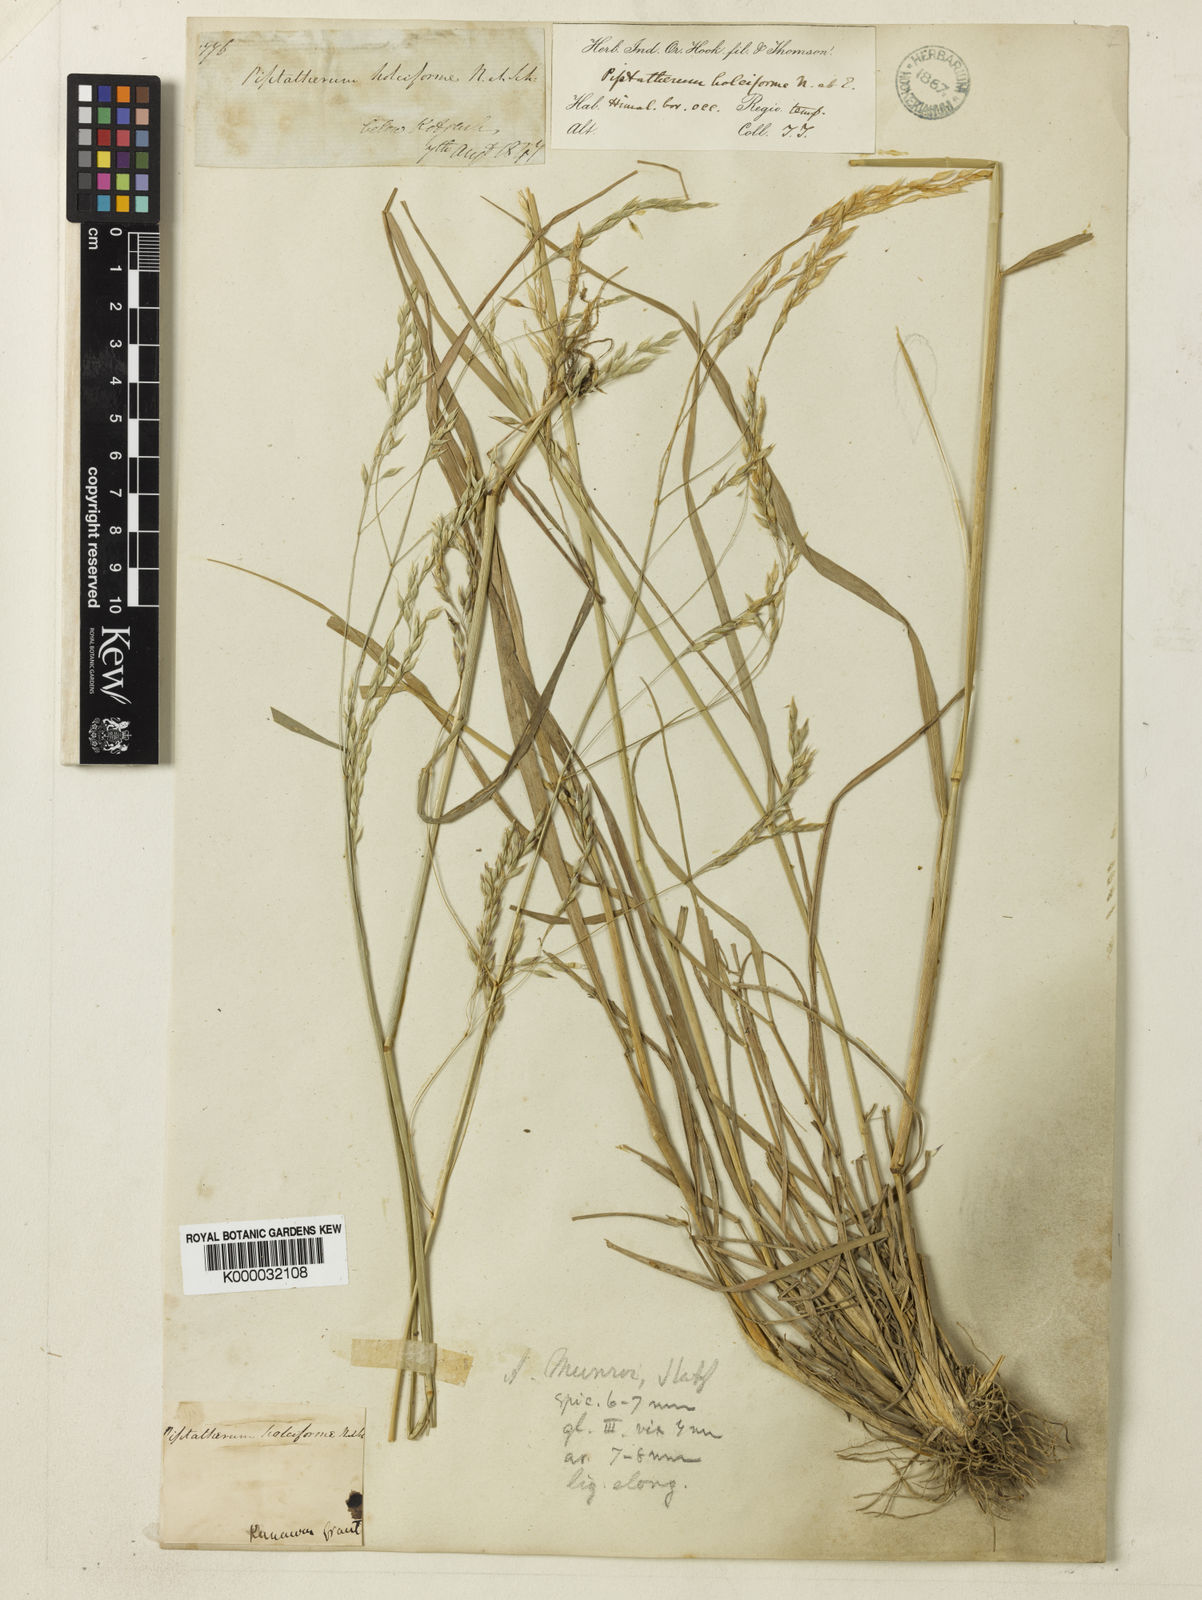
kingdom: Plantae
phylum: Tracheophyta
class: Liliopsida
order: Poales
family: Poaceae
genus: Piptatherum
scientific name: Piptatherum munroi
